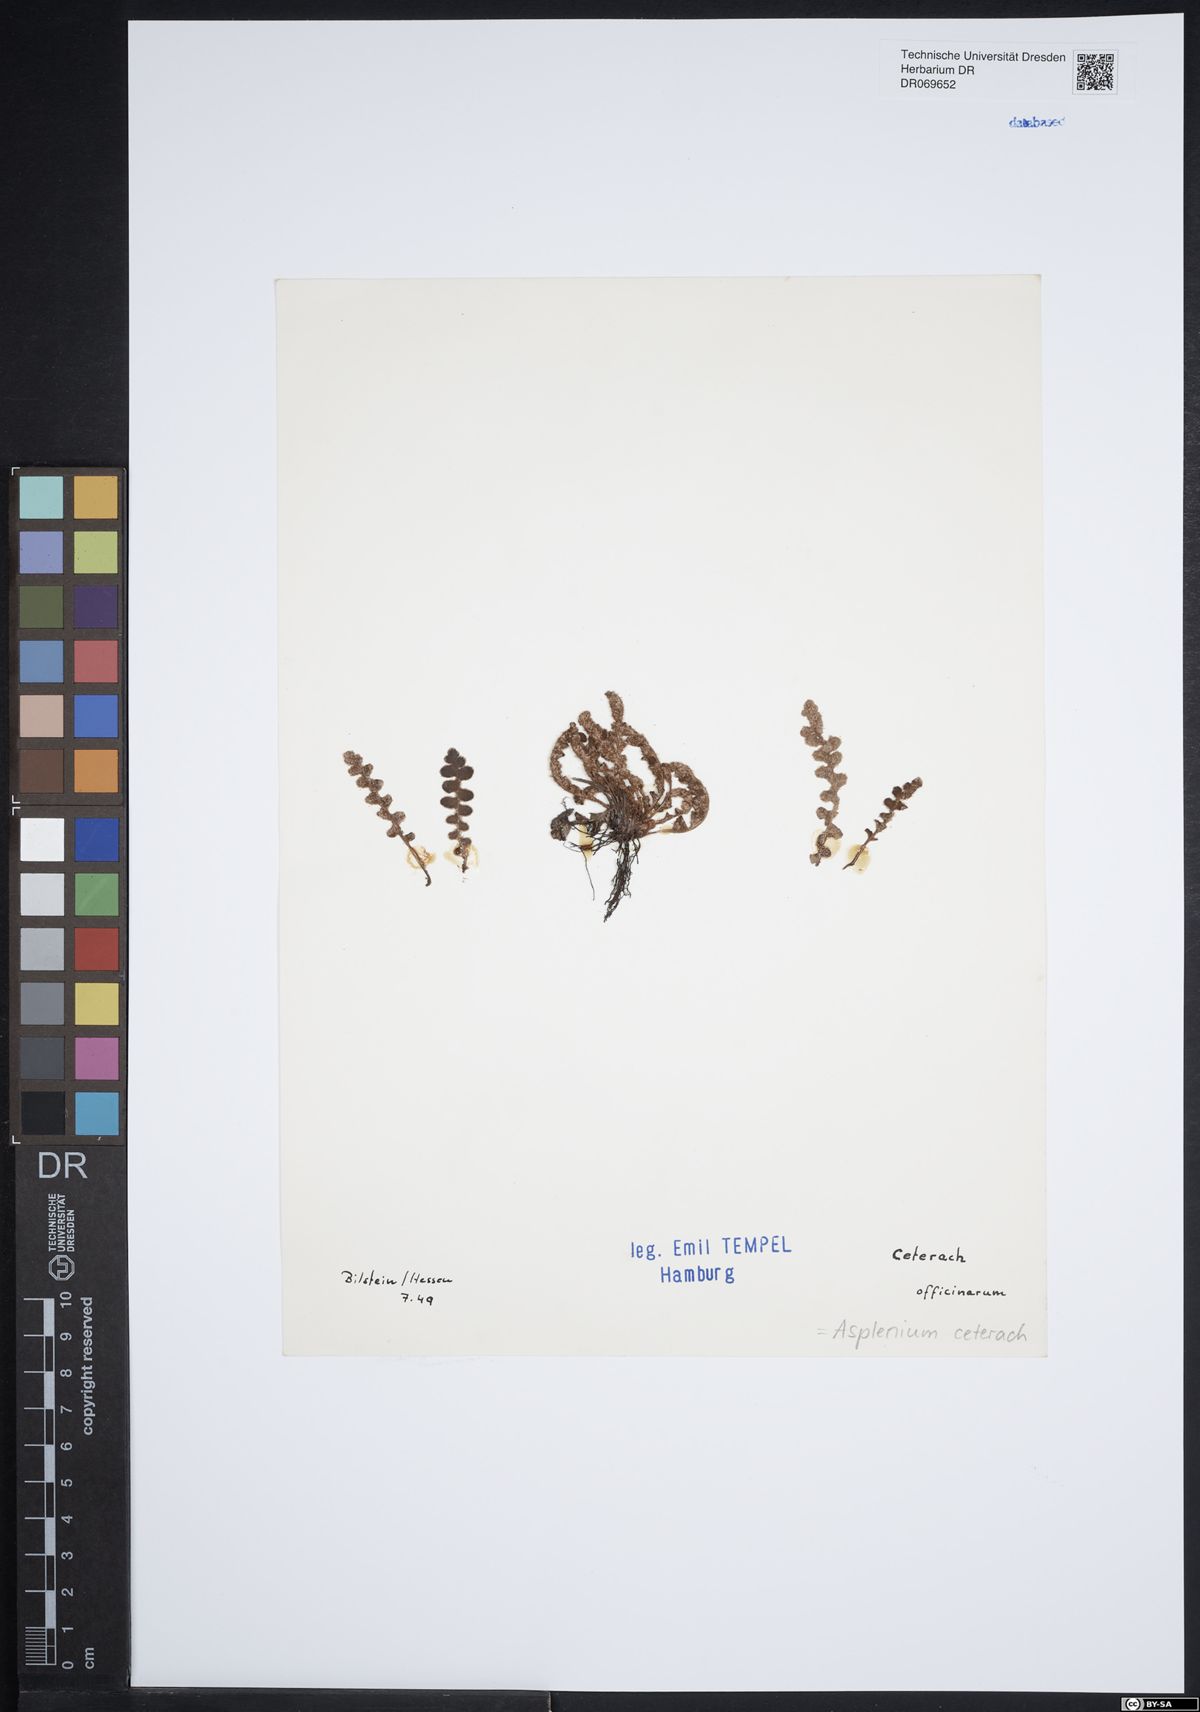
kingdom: Plantae
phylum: Tracheophyta
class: Polypodiopsida
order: Polypodiales
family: Aspleniaceae
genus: Asplenium
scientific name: Asplenium ceterach
